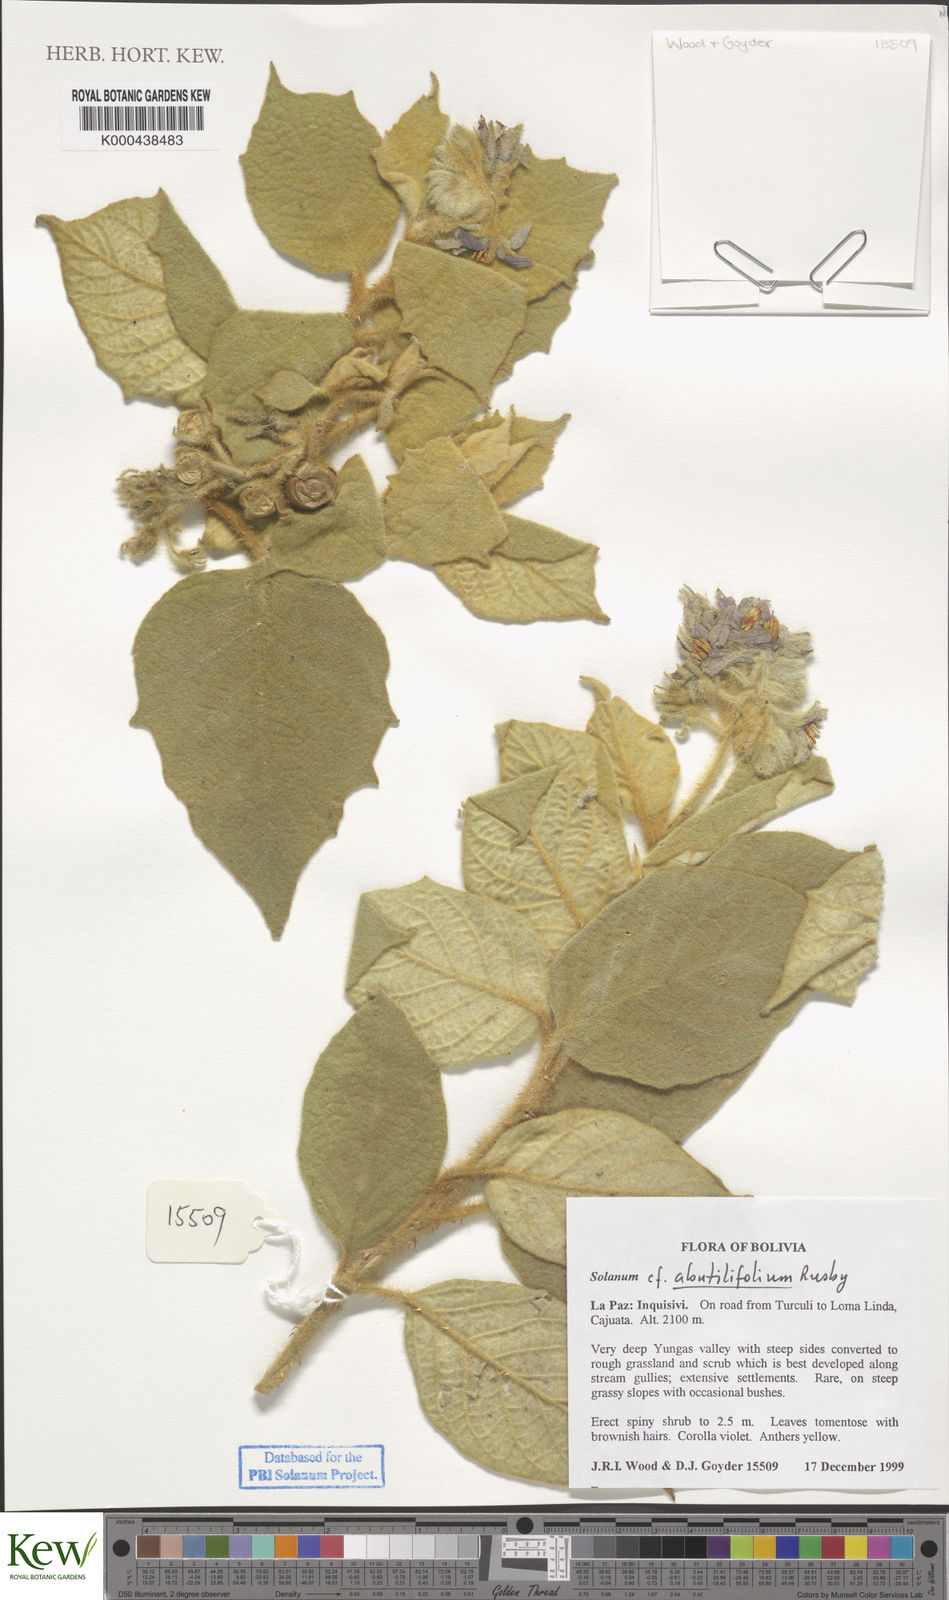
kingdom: Plantae
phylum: Tracheophyta
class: Magnoliopsida
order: Solanales
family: Solanaceae
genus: Solanum
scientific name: Solanum abutilifolium
